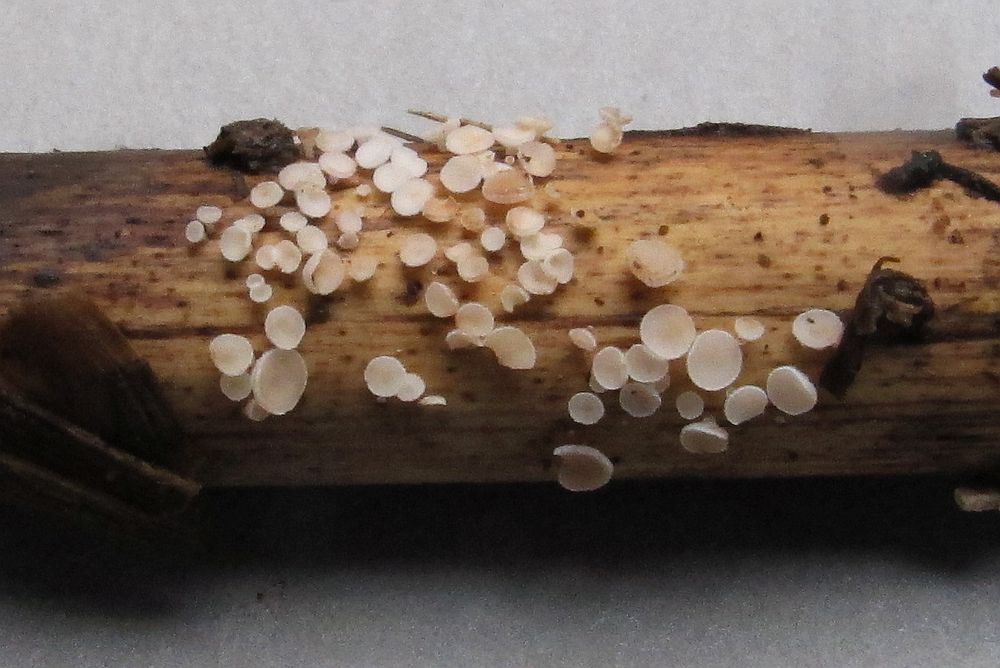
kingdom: Fungi
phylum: Ascomycota
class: Leotiomycetes
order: Helotiales
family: Lachnaceae
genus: Lachnum
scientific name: Lachnum controversum
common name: tagrør-frynseskive
